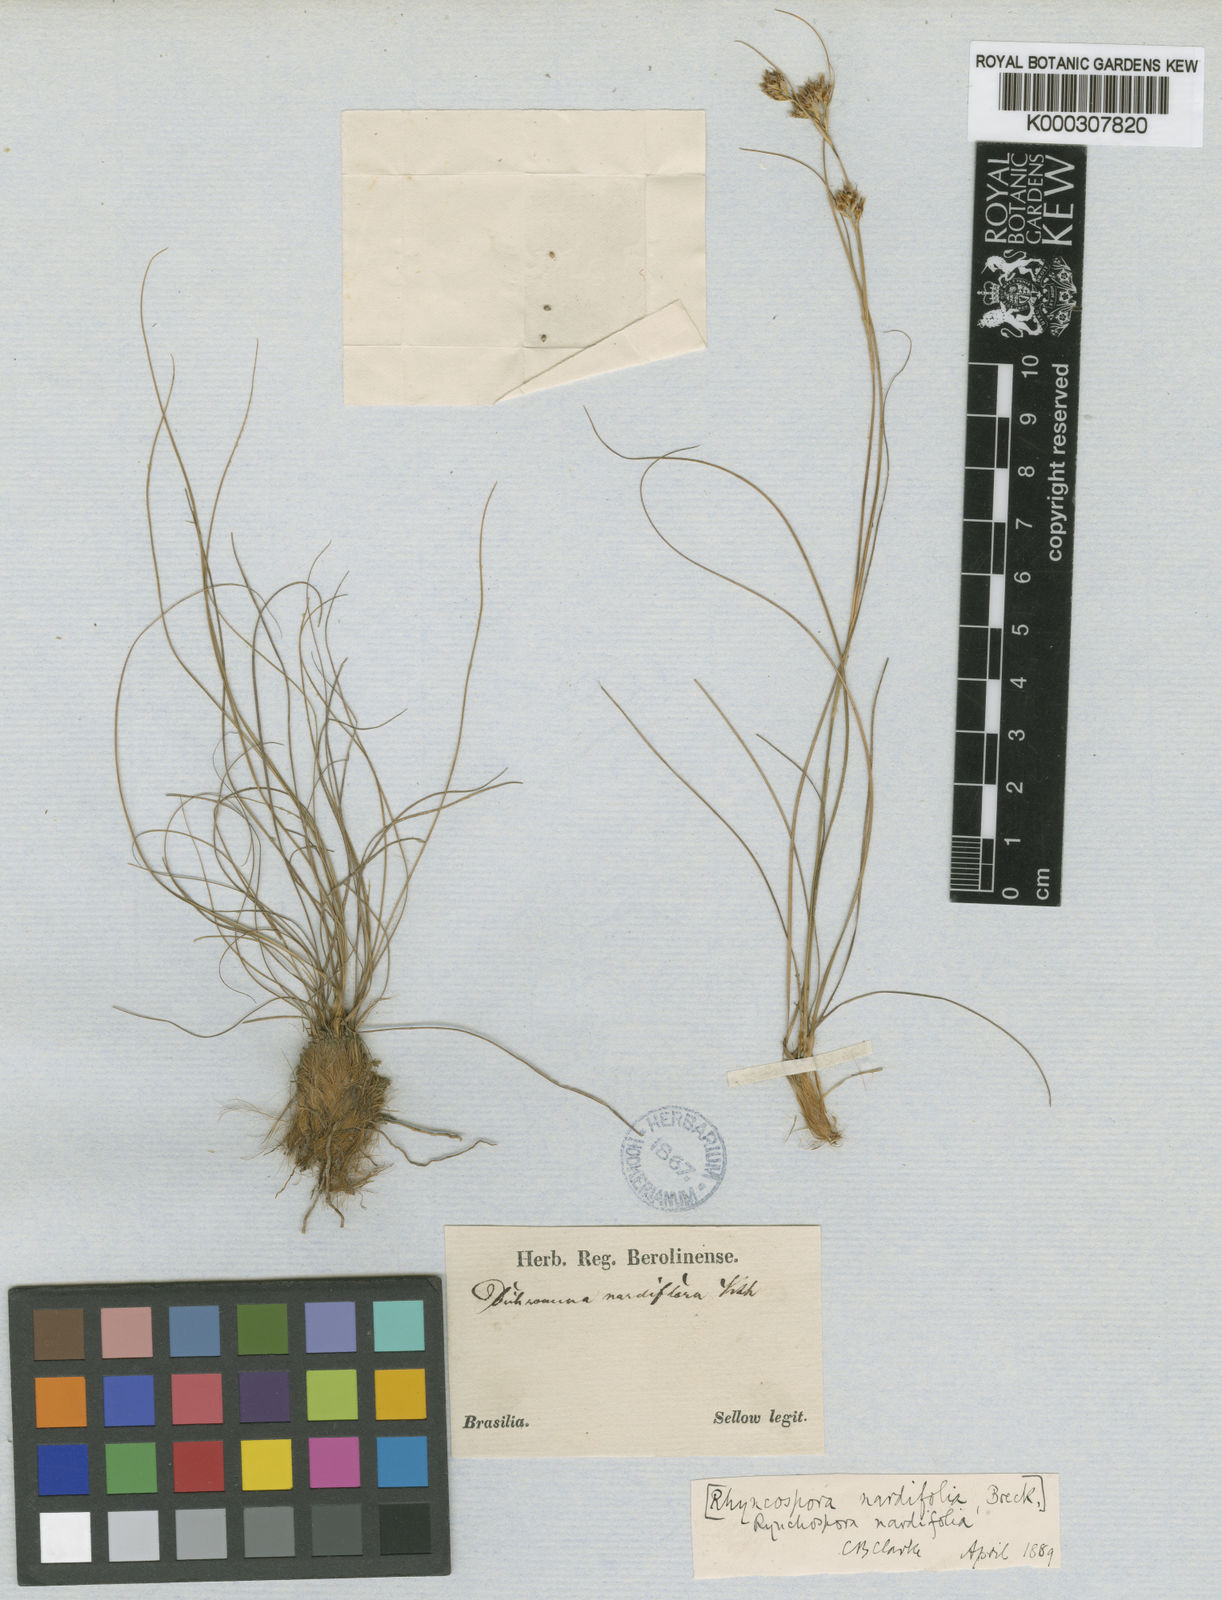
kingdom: Plantae
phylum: Tracheophyta
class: Liliopsida
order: Poales
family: Cyperaceae
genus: Rhynchospora
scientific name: Rhynchospora nardifolia
